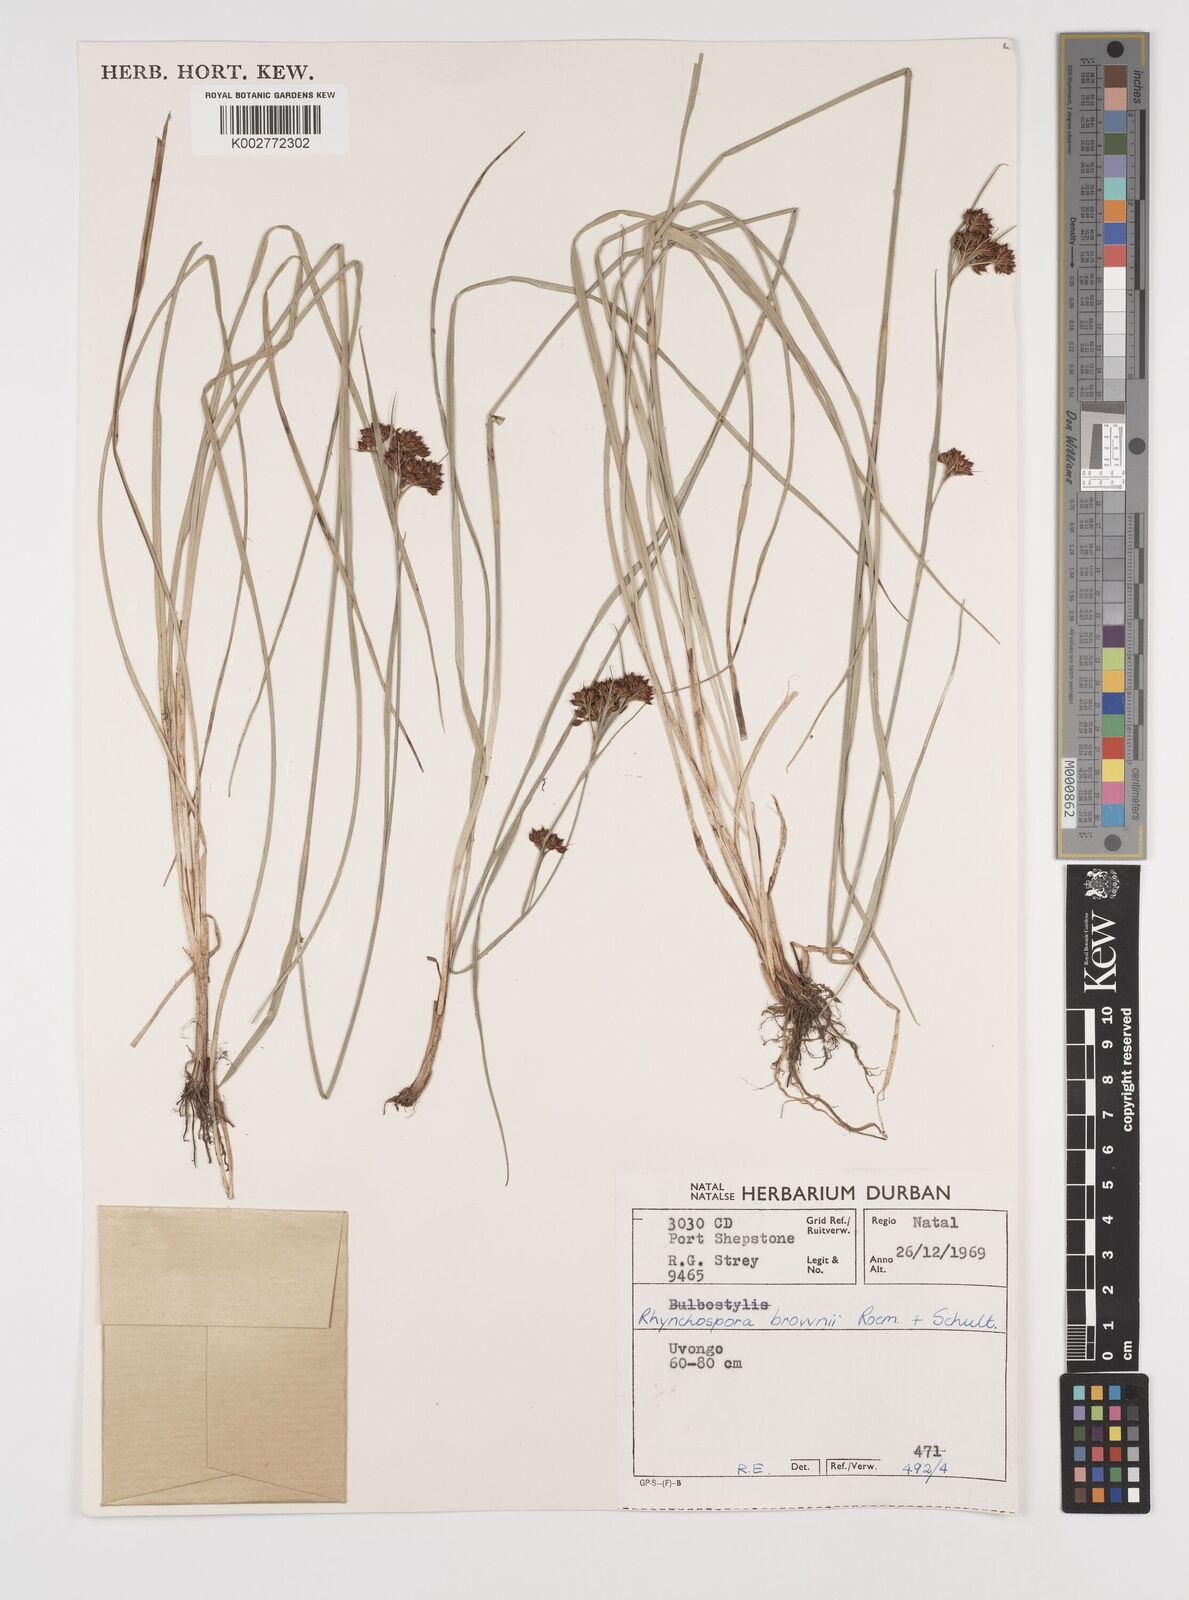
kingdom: Plantae
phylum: Tracheophyta
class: Liliopsida
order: Poales
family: Cyperaceae
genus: Rhynchospora
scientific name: Rhynchospora rugosa
